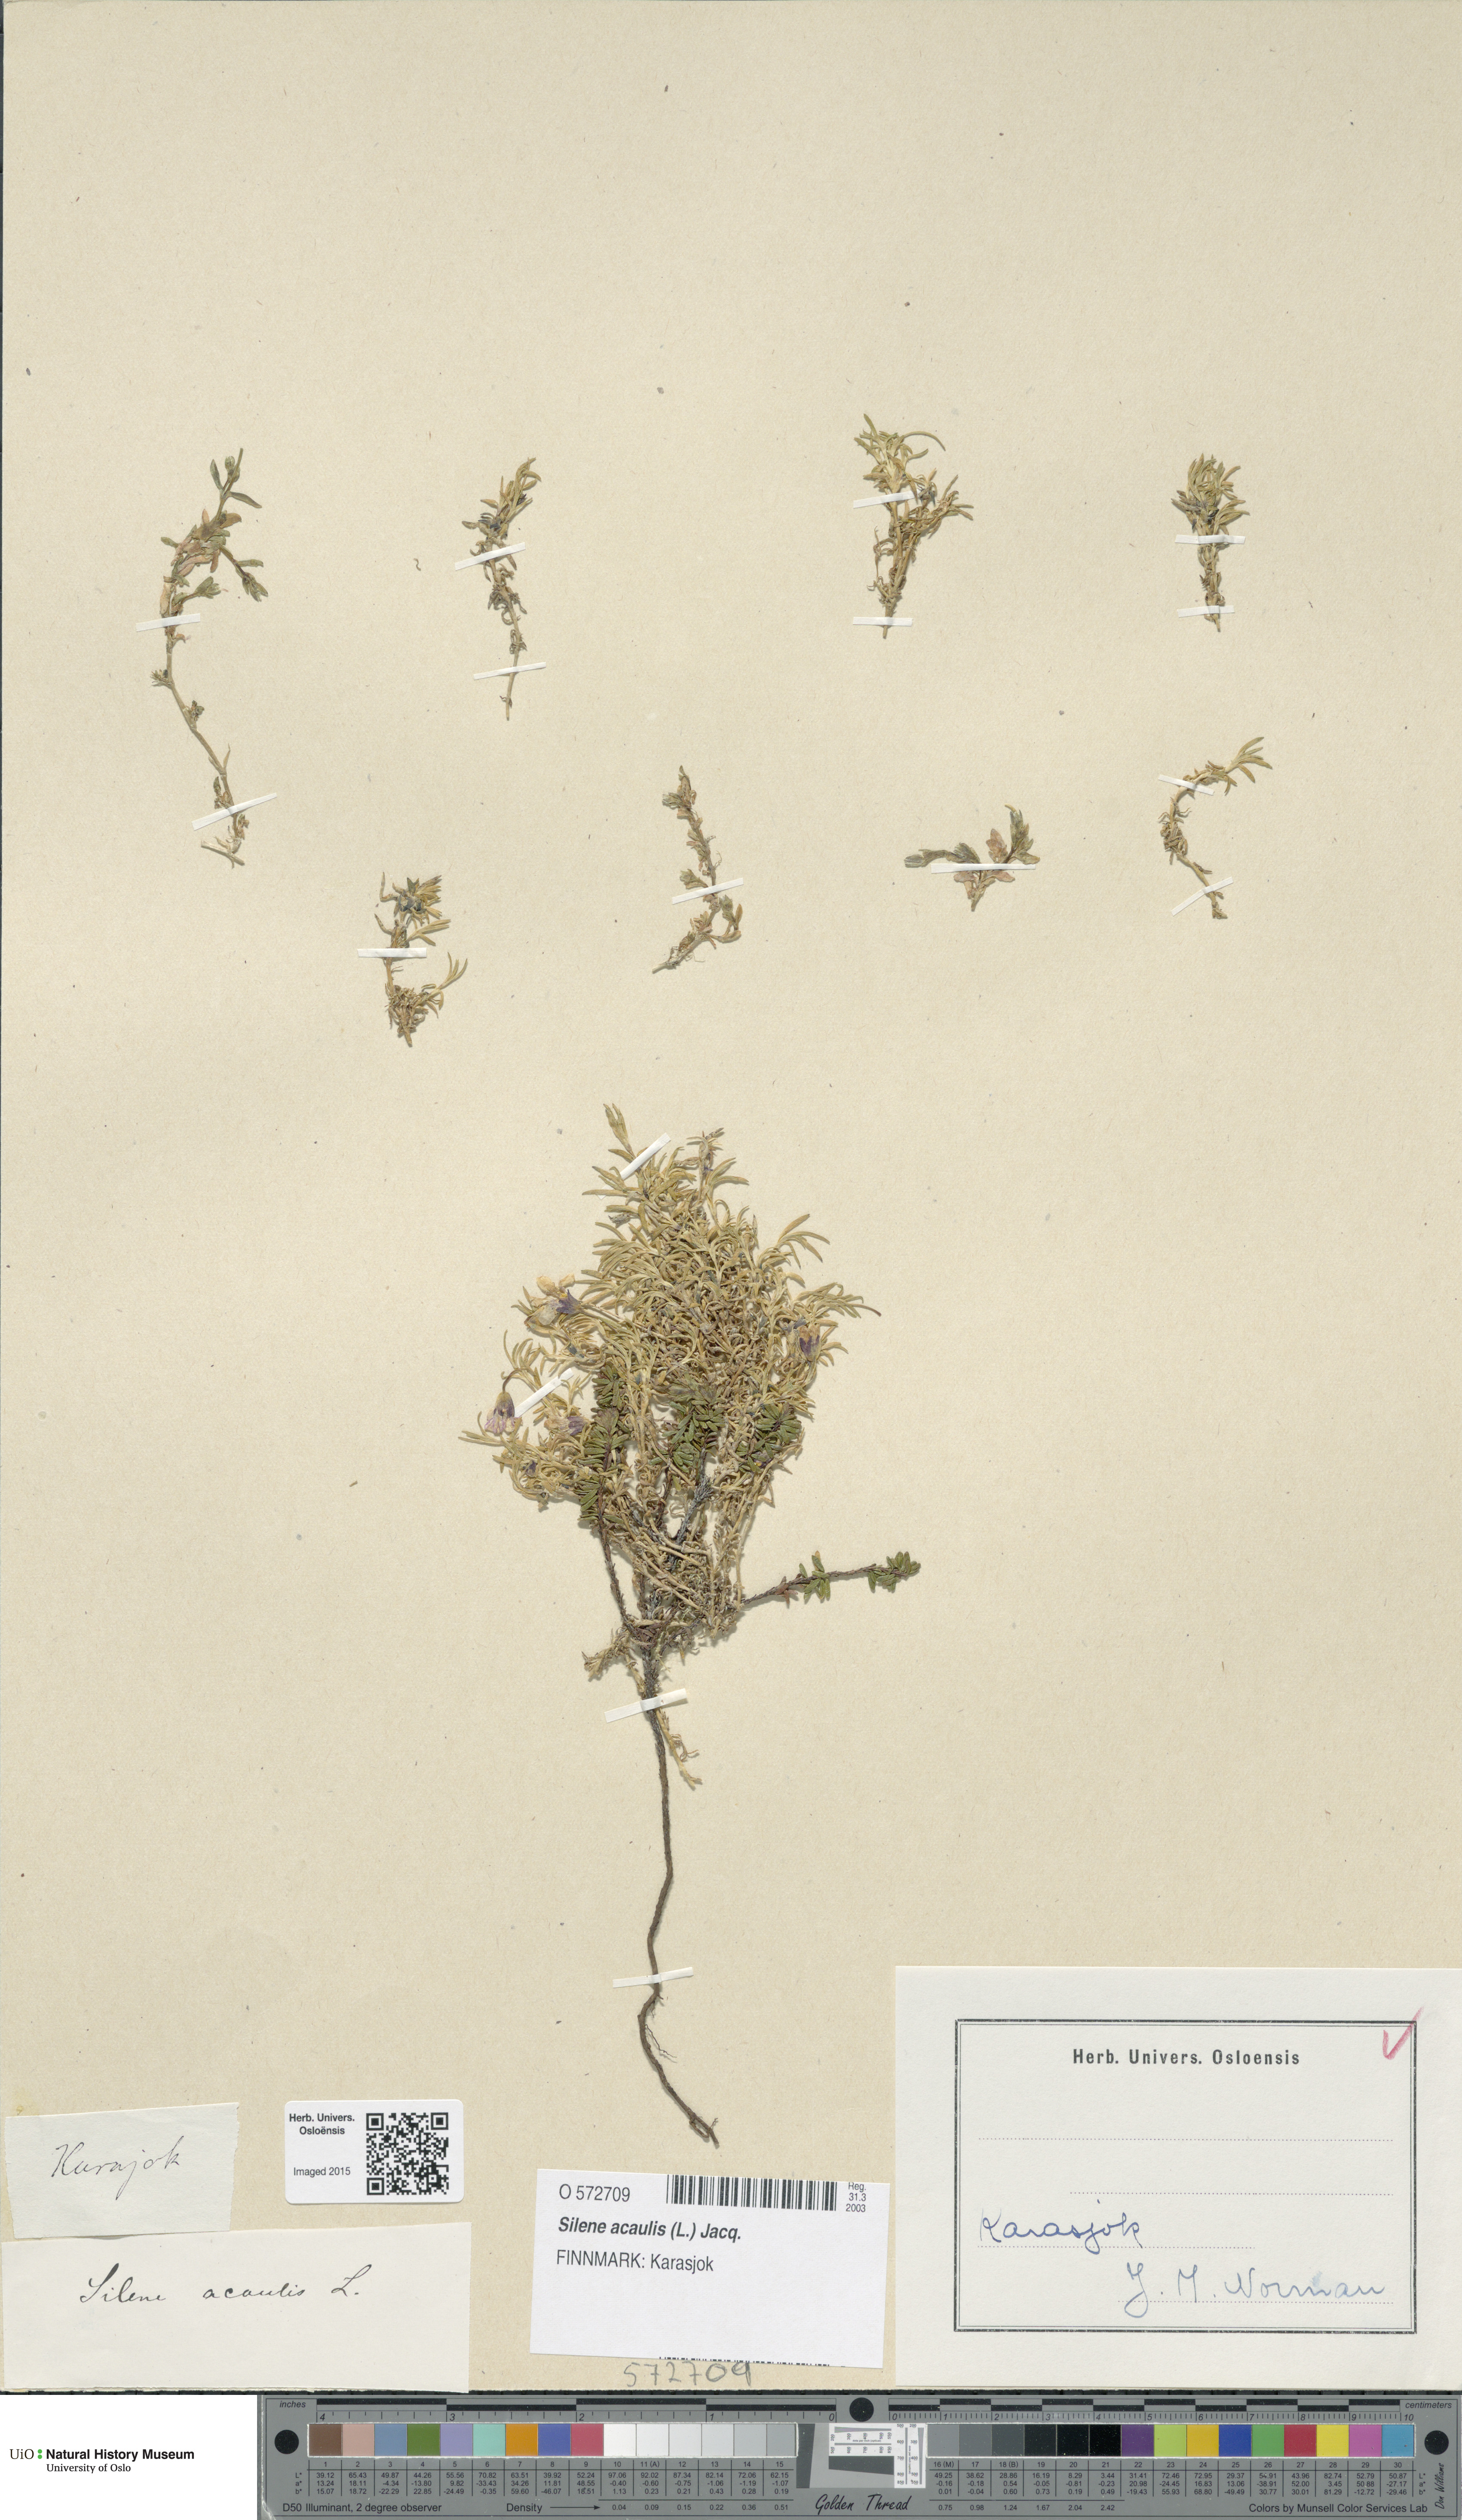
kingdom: Plantae
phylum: Tracheophyta
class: Magnoliopsida
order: Caryophyllales
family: Caryophyllaceae
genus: Silene
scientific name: Silene acaulis
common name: Moss campion
